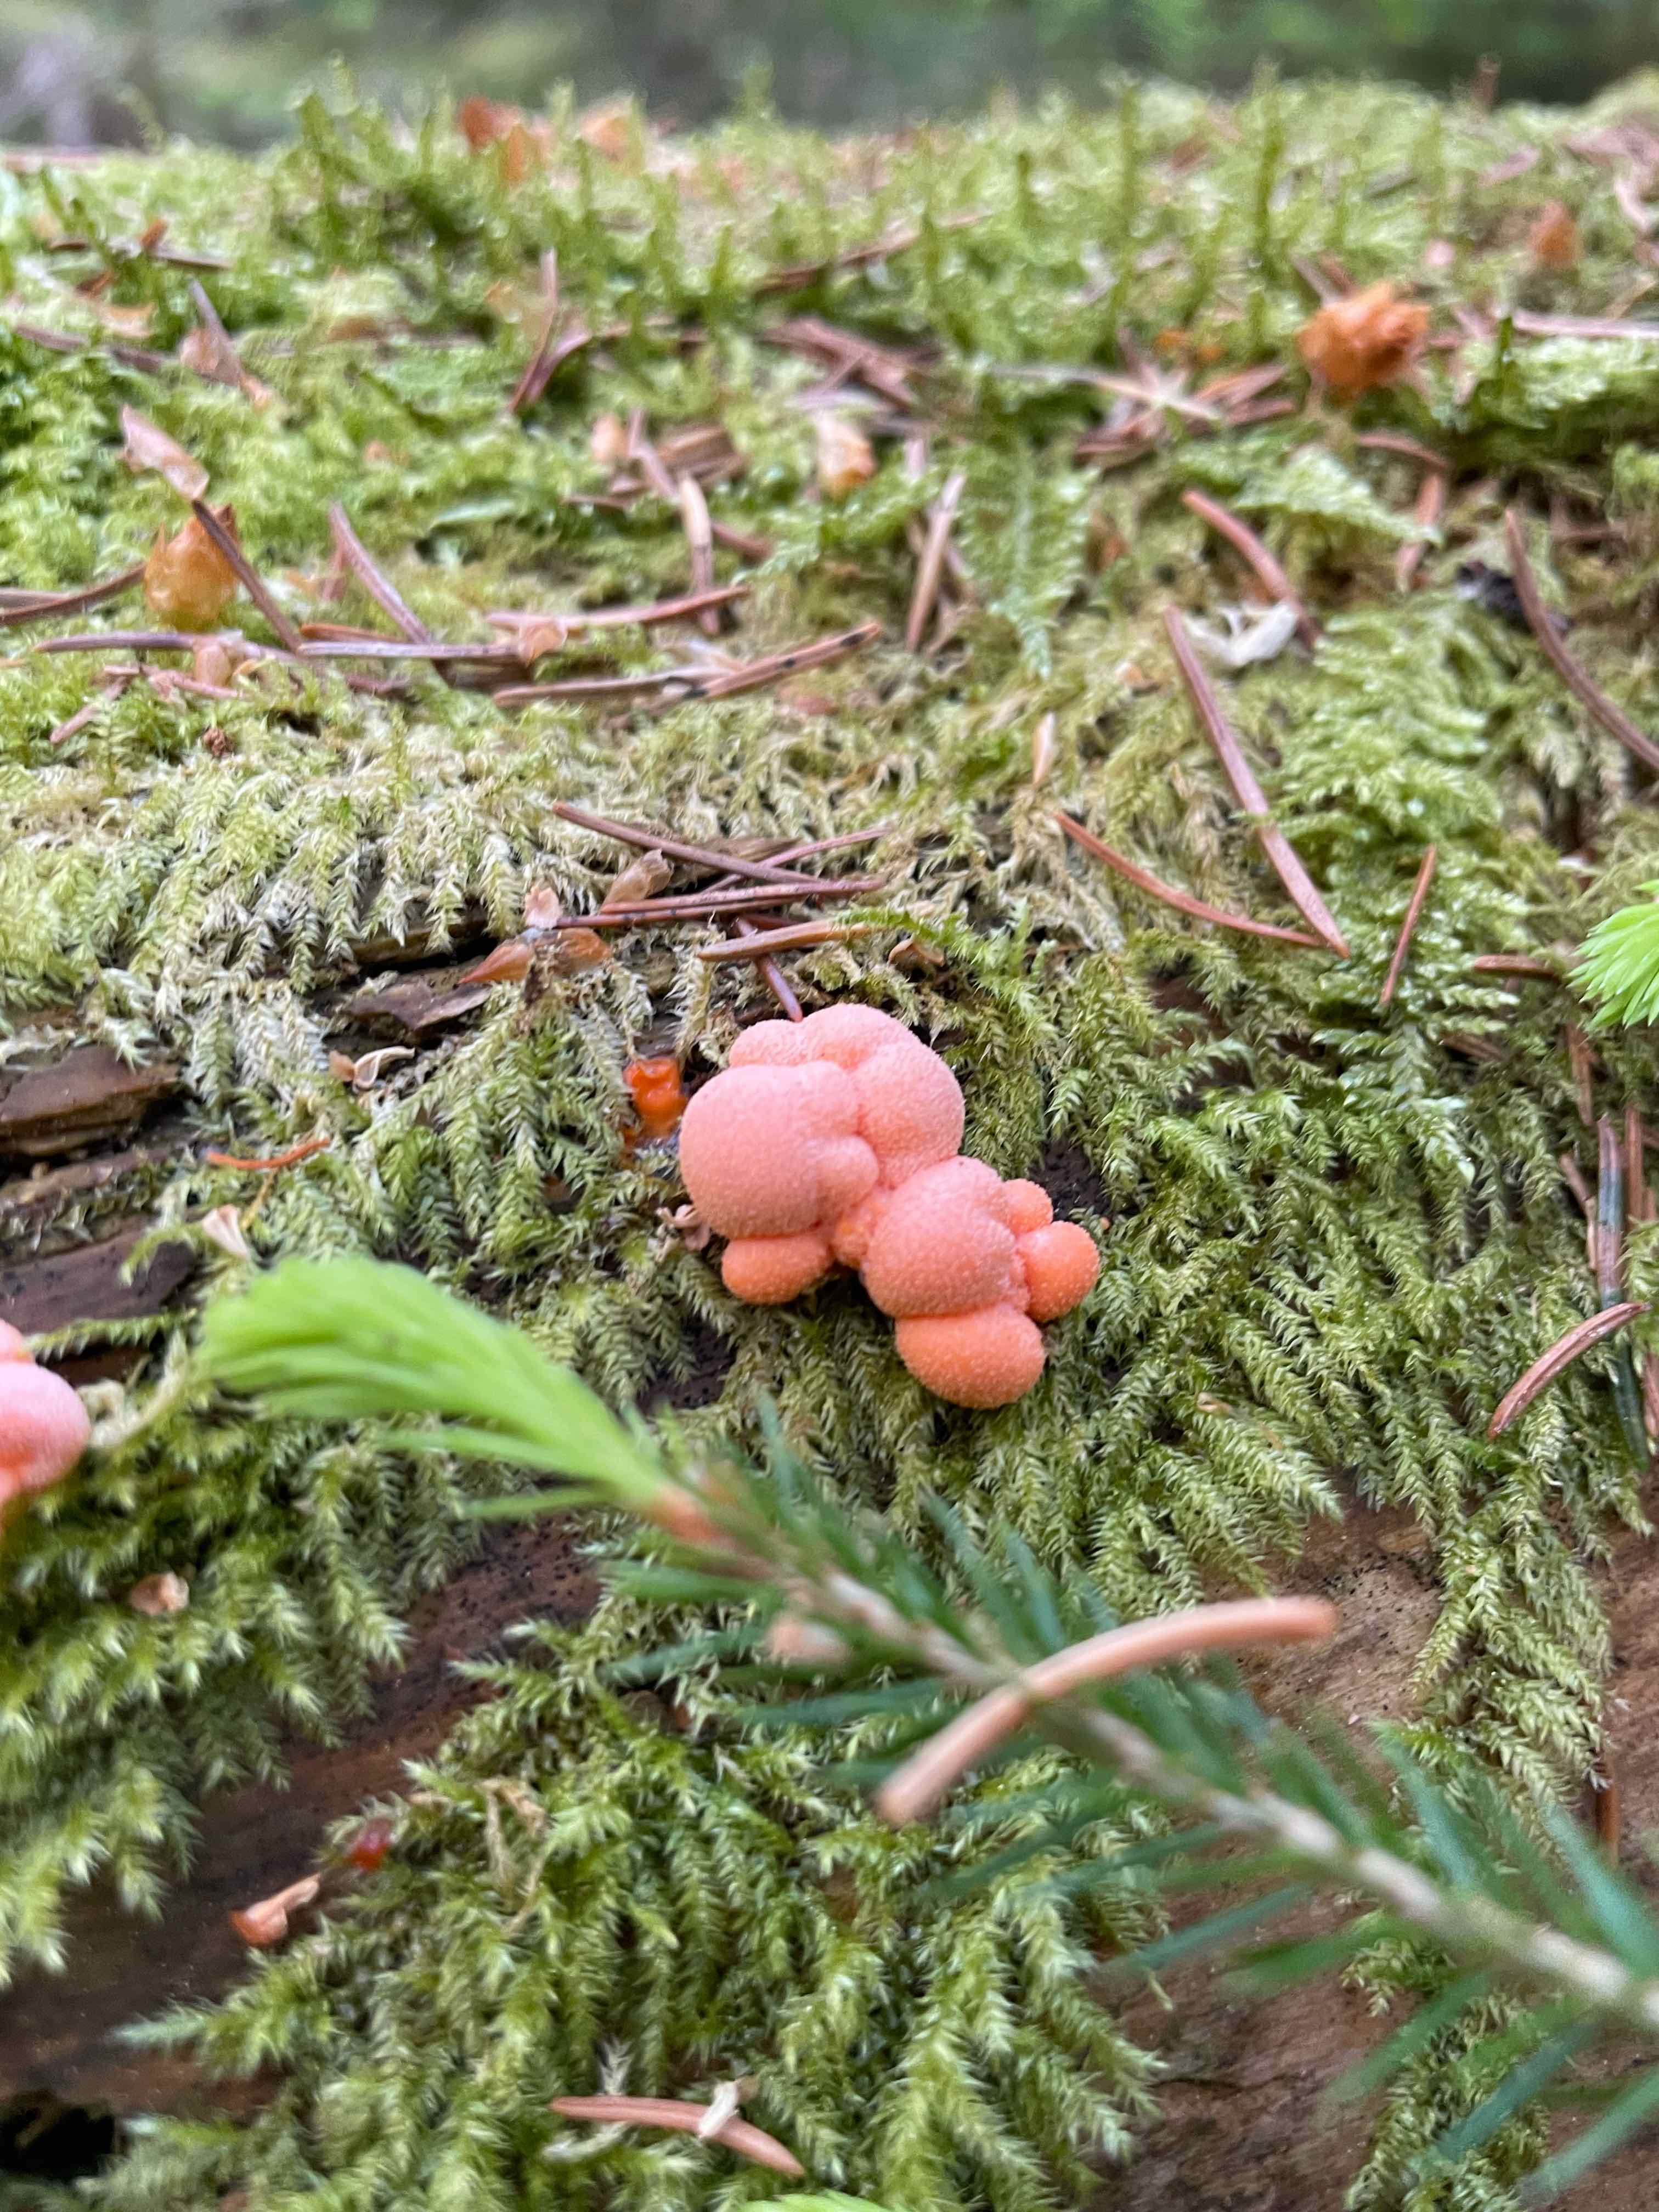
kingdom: Protozoa
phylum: Mycetozoa
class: Myxomycetes
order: Cribrariales
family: Tubiferaceae
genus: Lycogala
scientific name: Lycogala epidendrum
